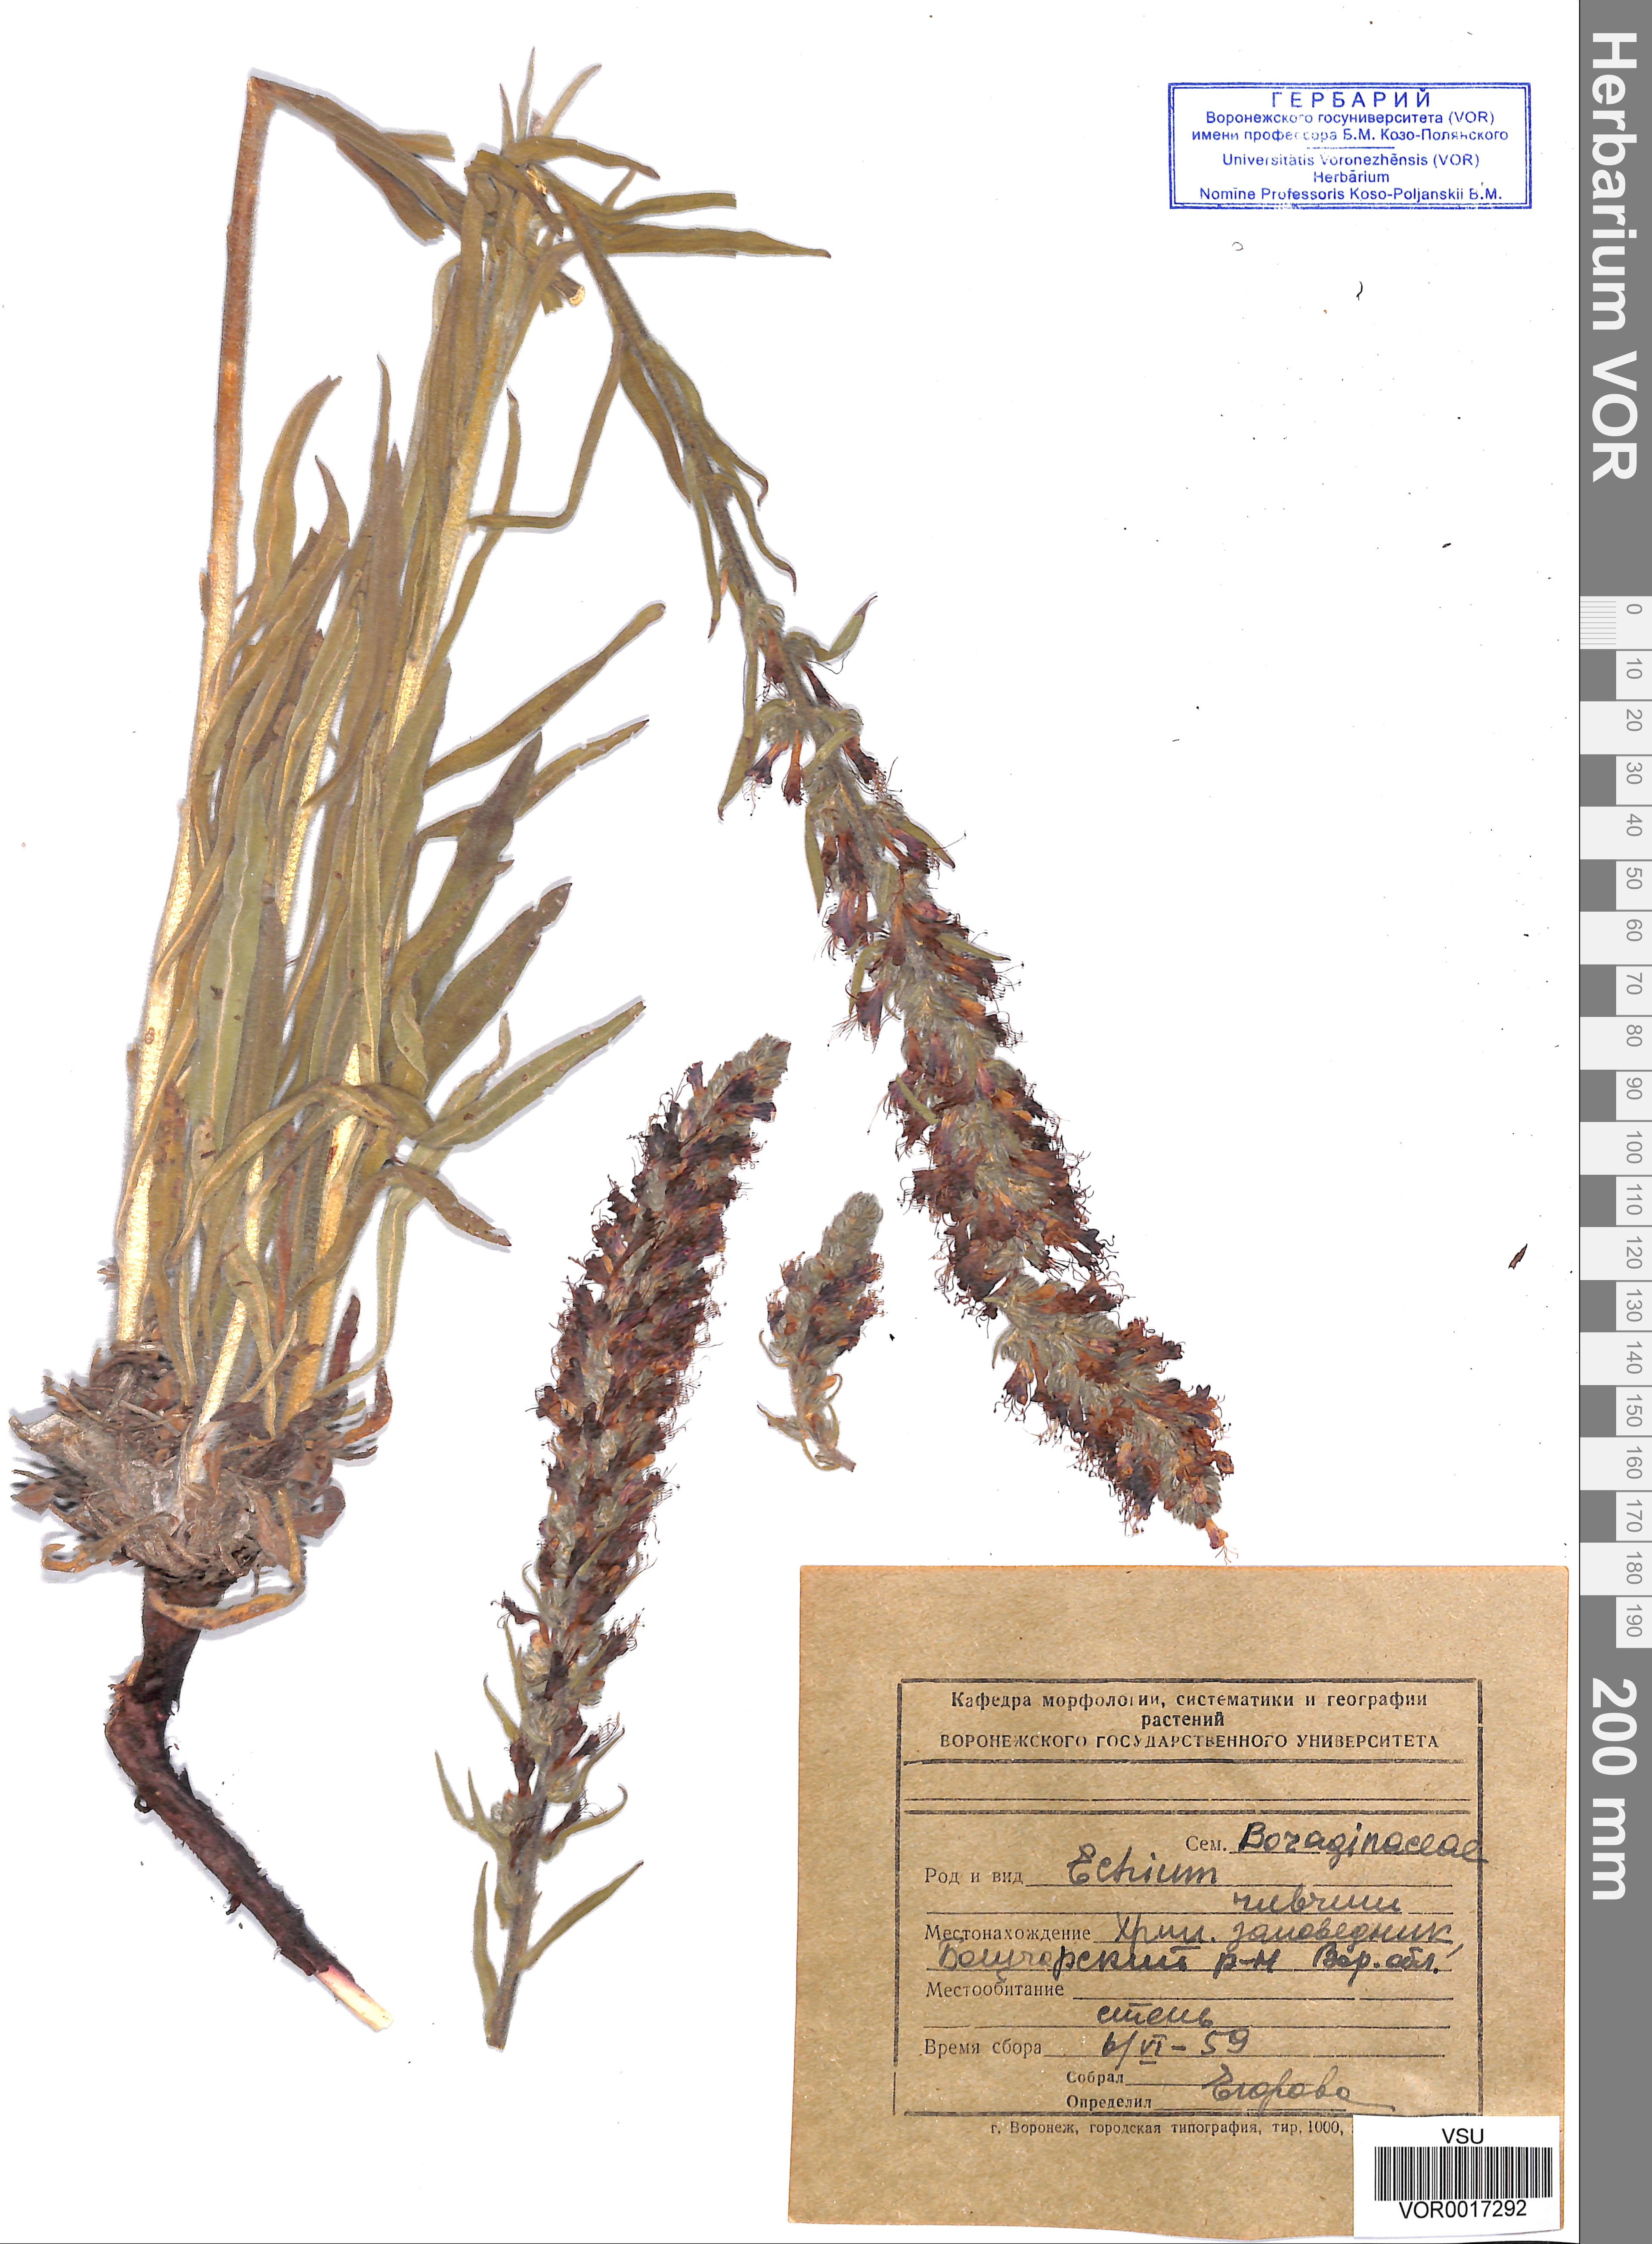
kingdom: Plantae
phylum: Tracheophyta
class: Magnoliopsida
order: Boraginales
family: Boraginaceae
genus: Pontechium
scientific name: Pontechium maculatum
